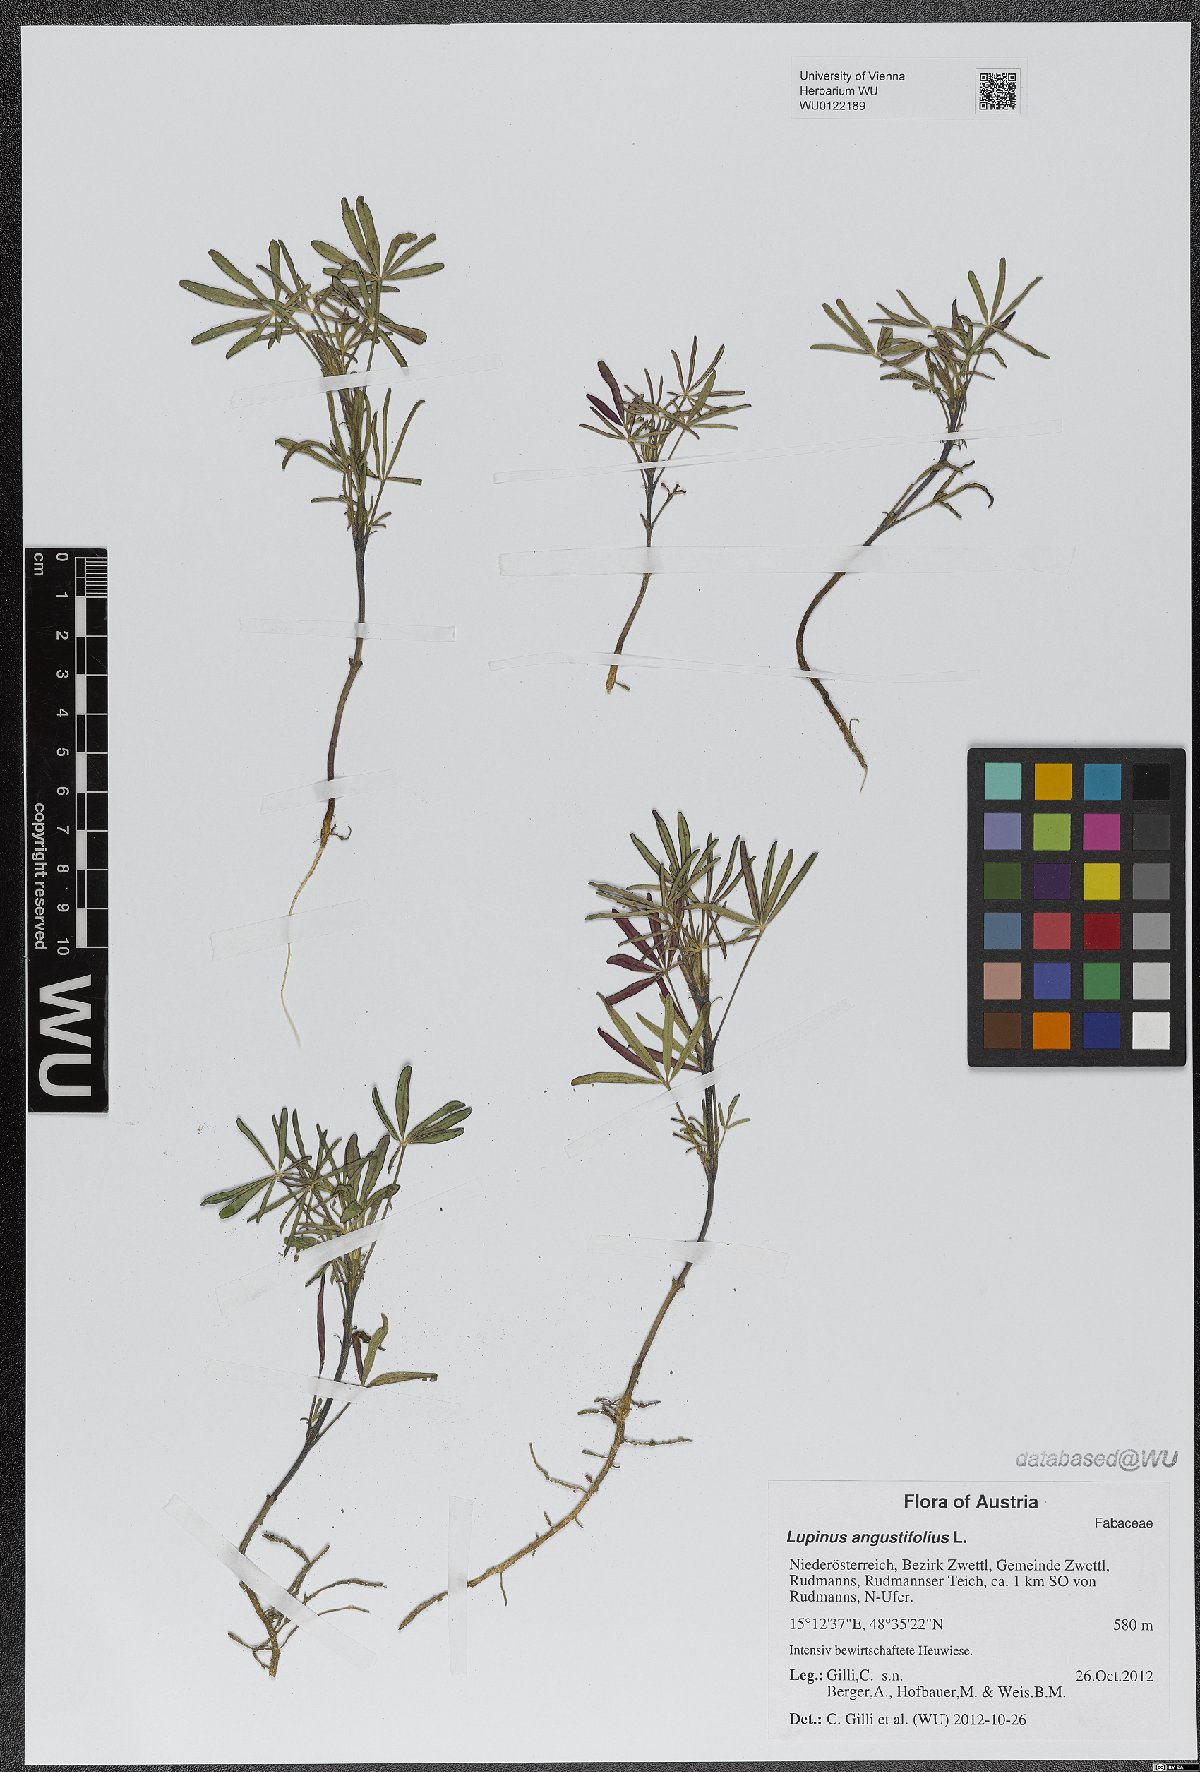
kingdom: Plantae
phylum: Tracheophyta
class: Magnoliopsida
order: Fabales
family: Fabaceae
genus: Lupinus
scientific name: Lupinus angustifolius
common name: Narrow-leaved lupin
